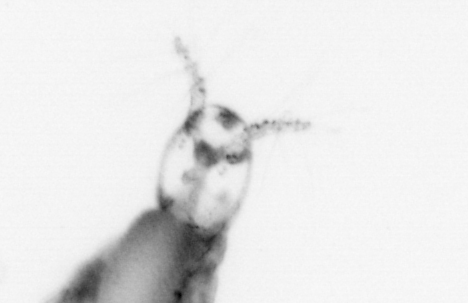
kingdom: Animalia
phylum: Arthropoda
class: Copepoda
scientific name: Copepoda
